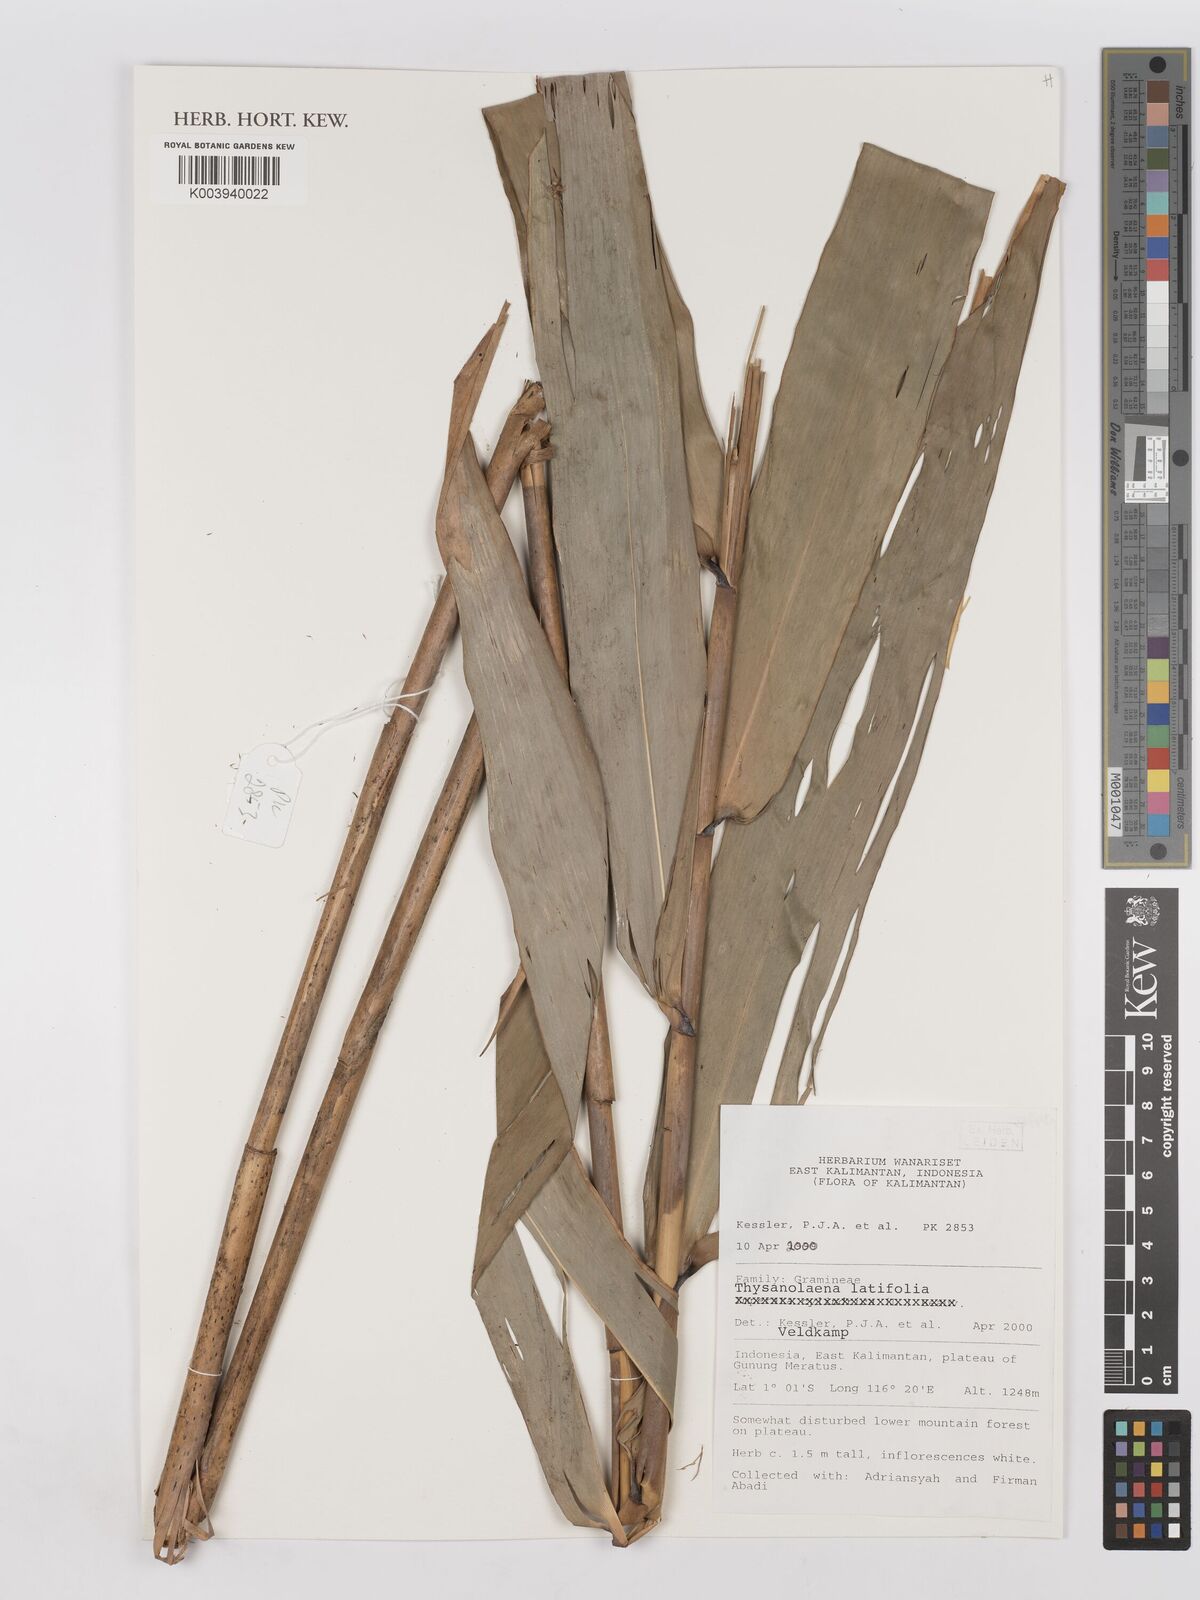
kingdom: Plantae
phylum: Tracheophyta
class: Liliopsida
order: Poales
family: Poaceae
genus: Thysanolaena
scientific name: Thysanolaena latifolia
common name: Tiger grass
